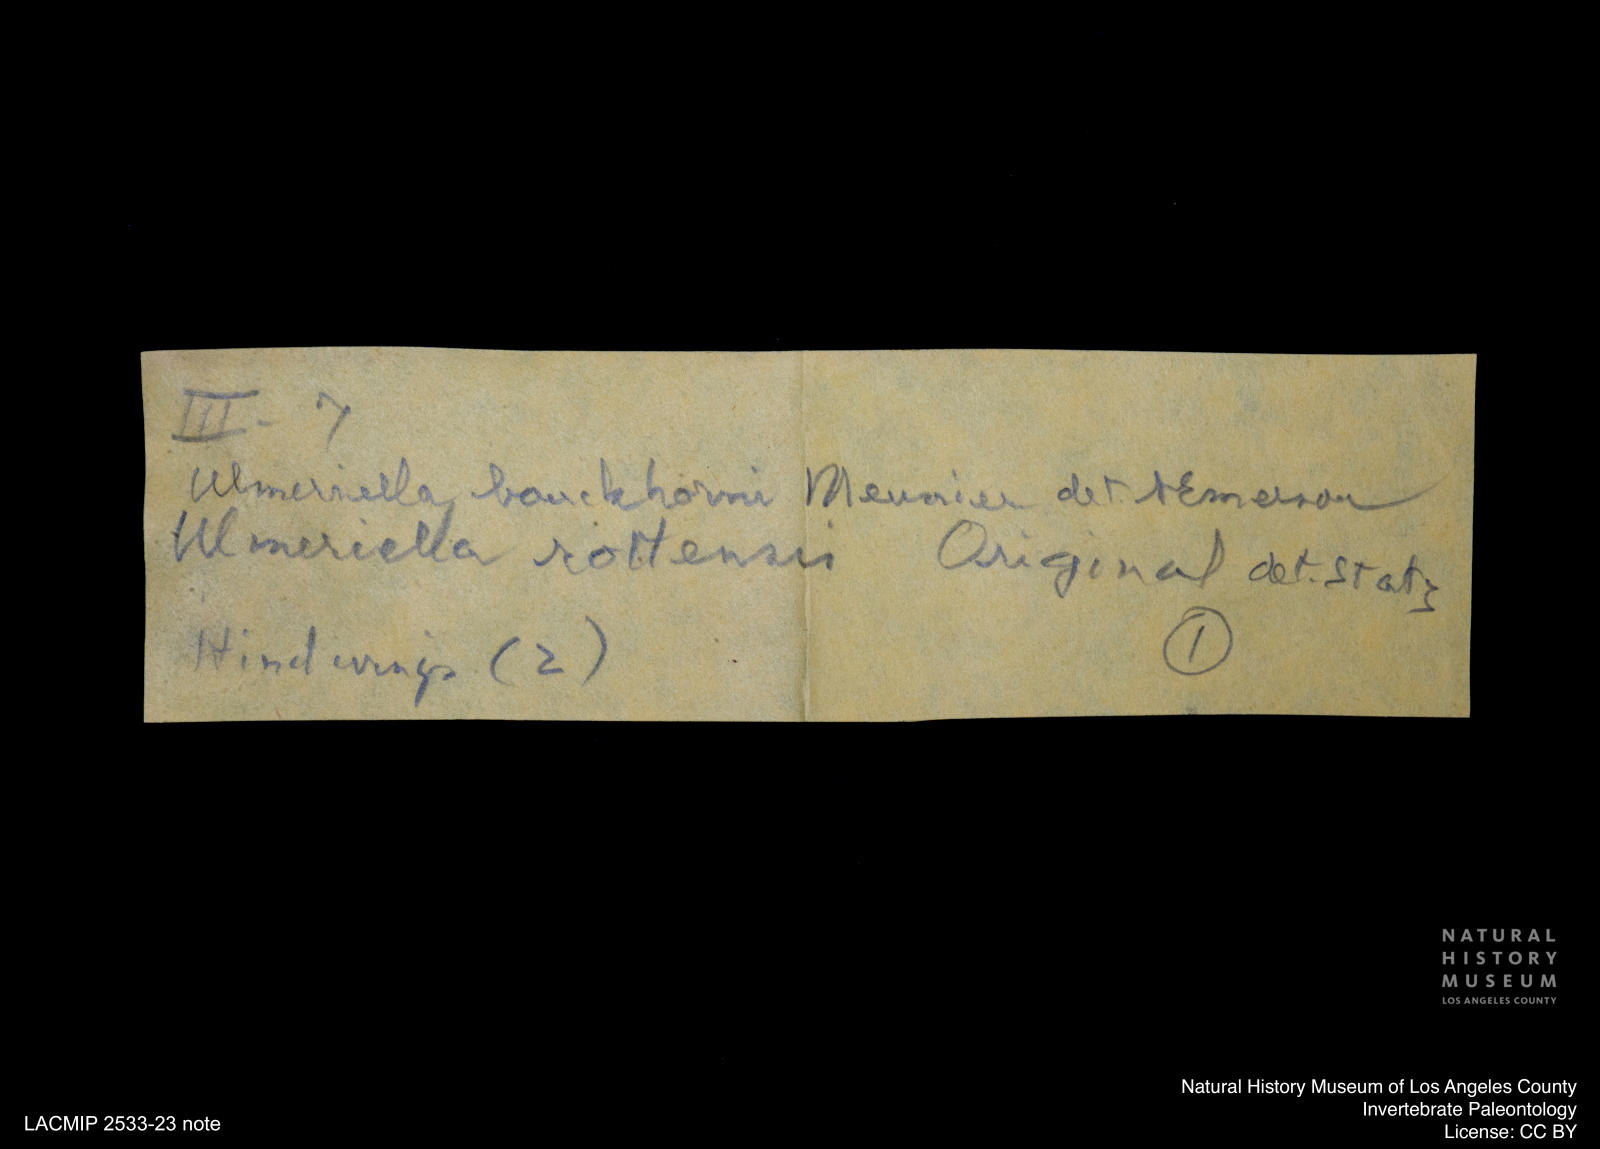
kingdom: Animalia
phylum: Arthropoda
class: Insecta
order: Blattodea
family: Hodotermitidae
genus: Ulmeriella
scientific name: Ulmeriella bauckhorni
